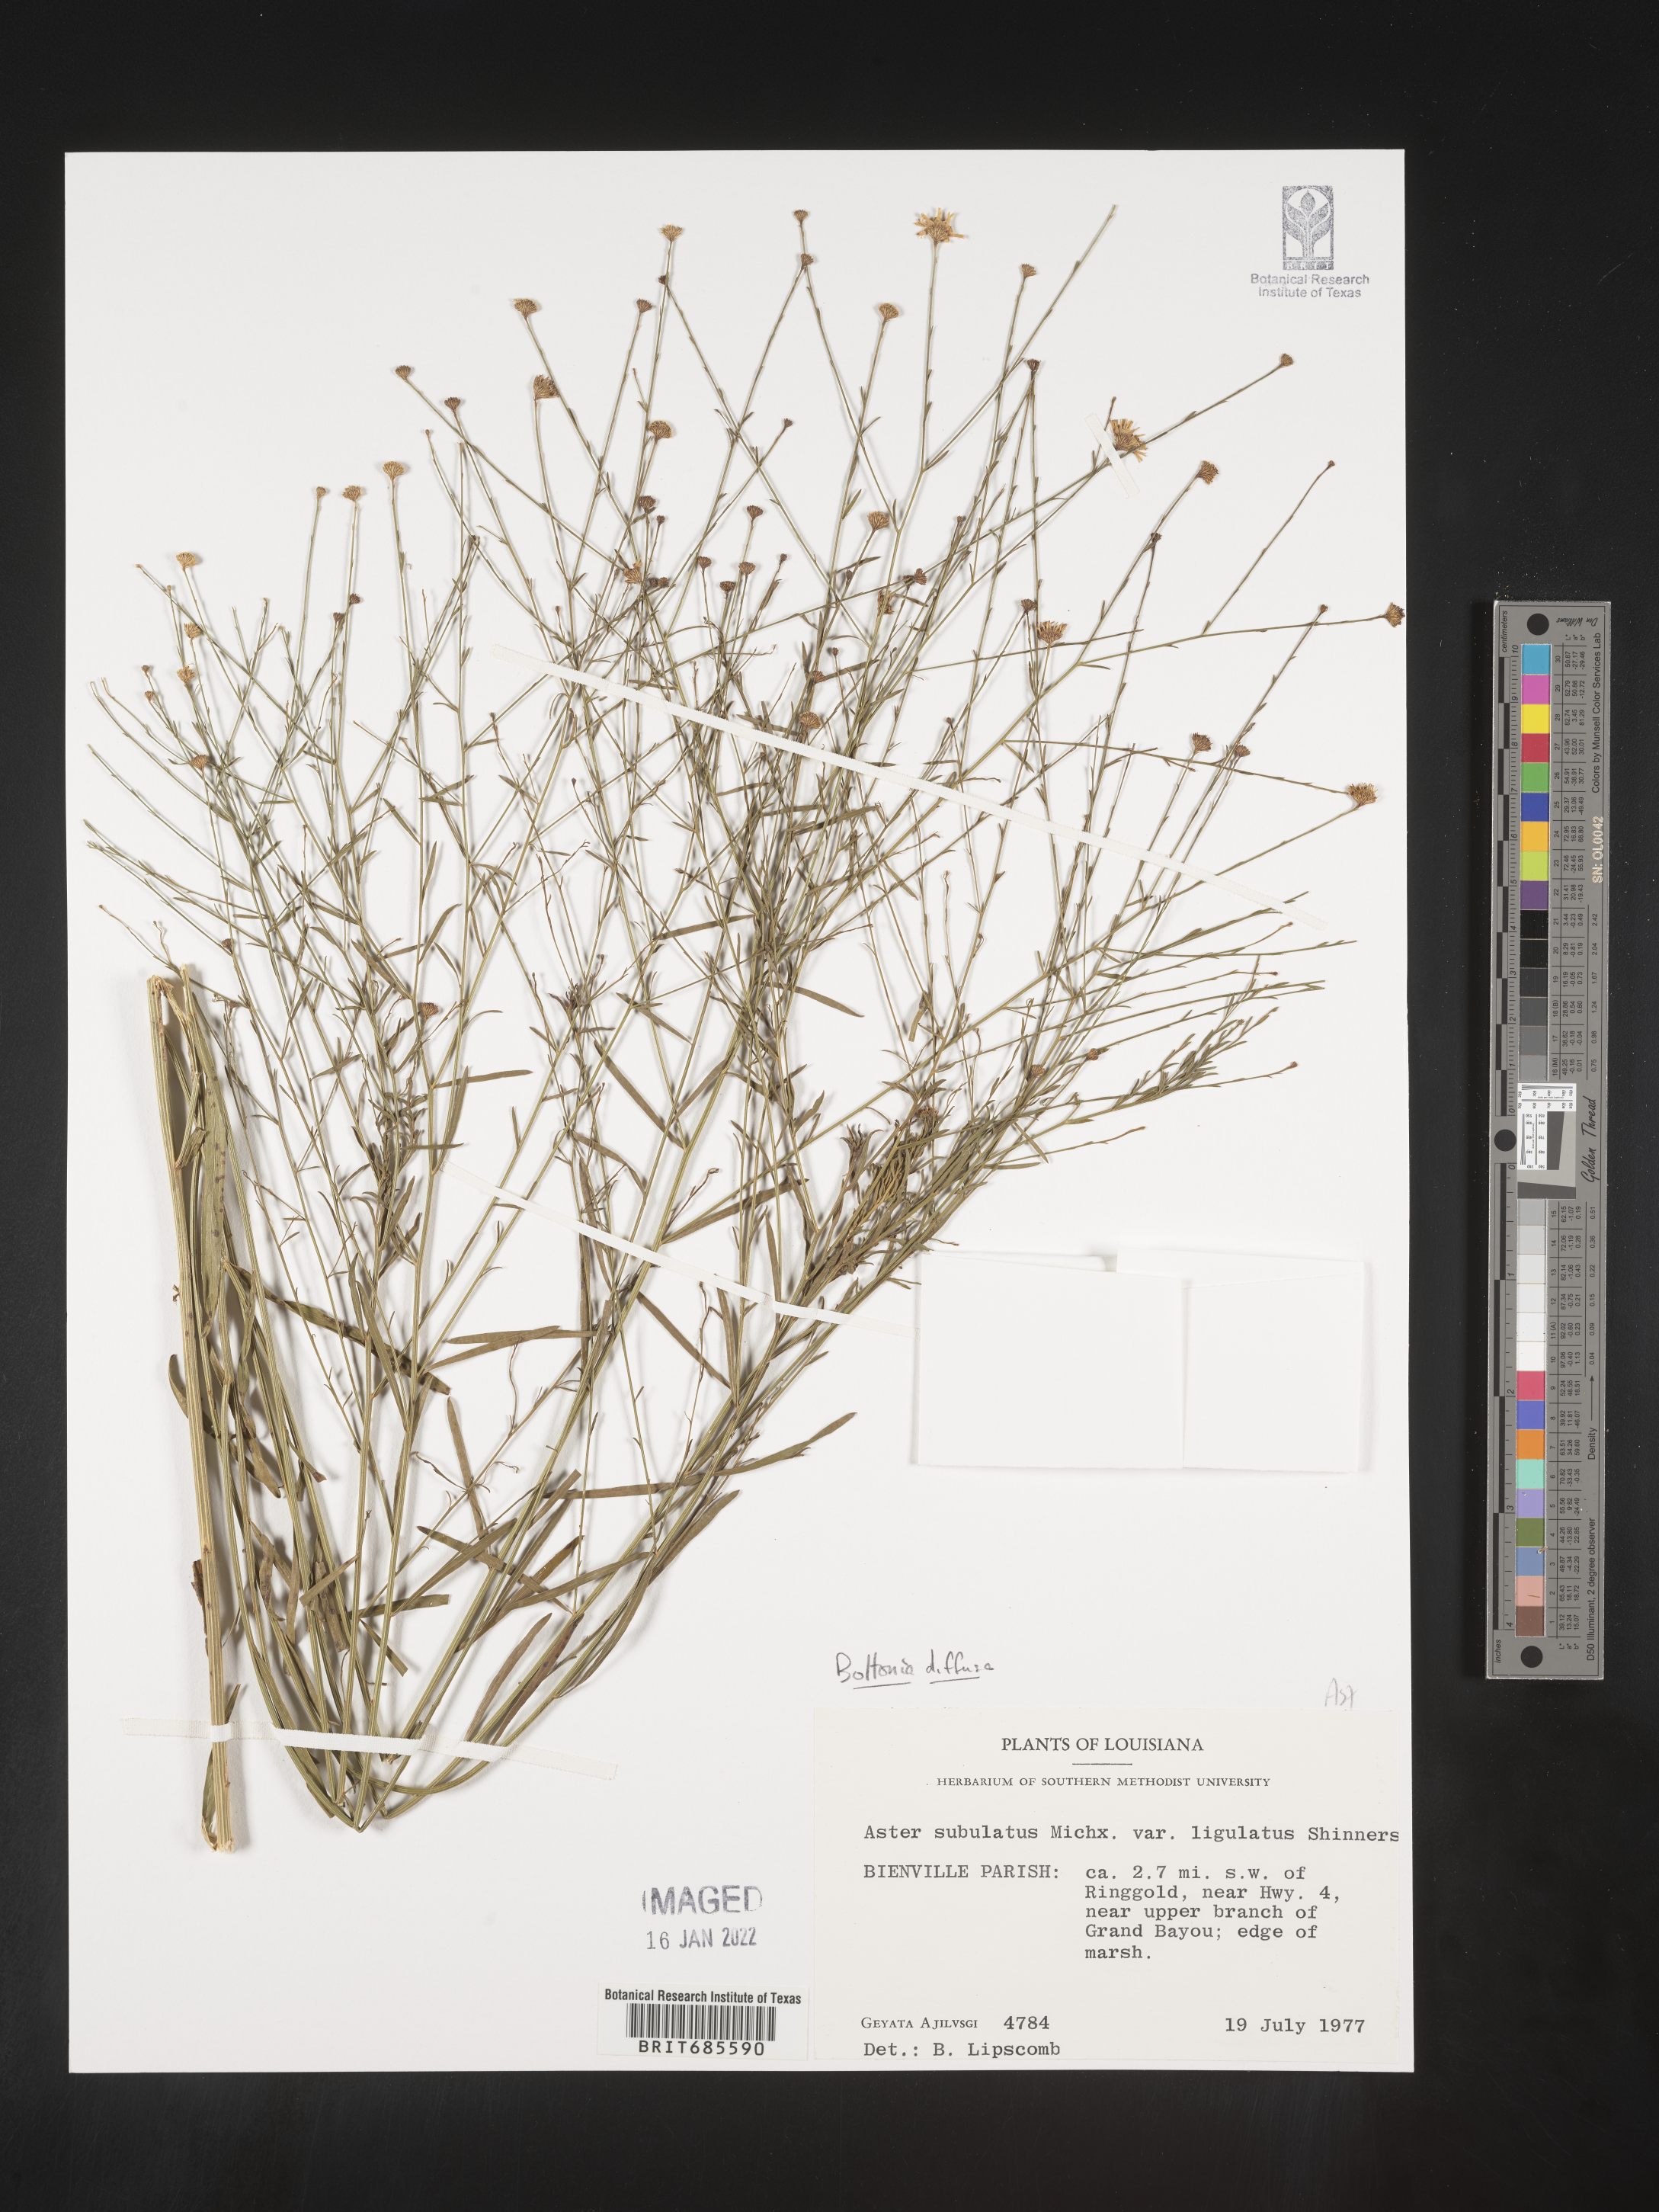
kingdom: Plantae
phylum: Tracheophyta
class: Magnoliopsida
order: Asterales
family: Asteraceae
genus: Boltonia
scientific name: Boltonia diffusa
